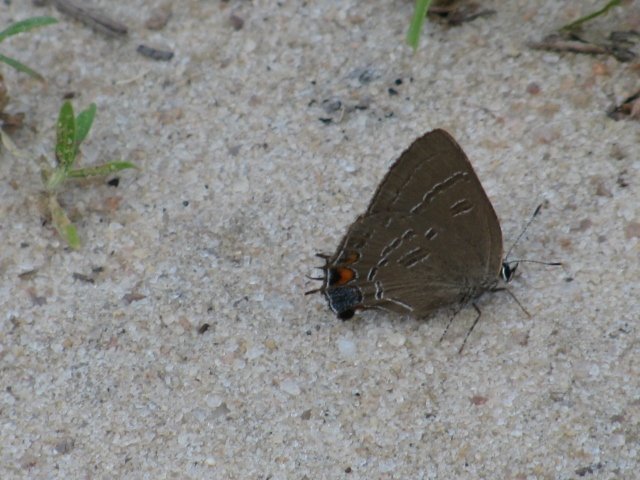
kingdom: Animalia
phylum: Arthropoda
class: Insecta
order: Lepidoptera
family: Lycaenidae
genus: Satyrium
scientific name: Satyrium calanus
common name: Banded Hairstreak
